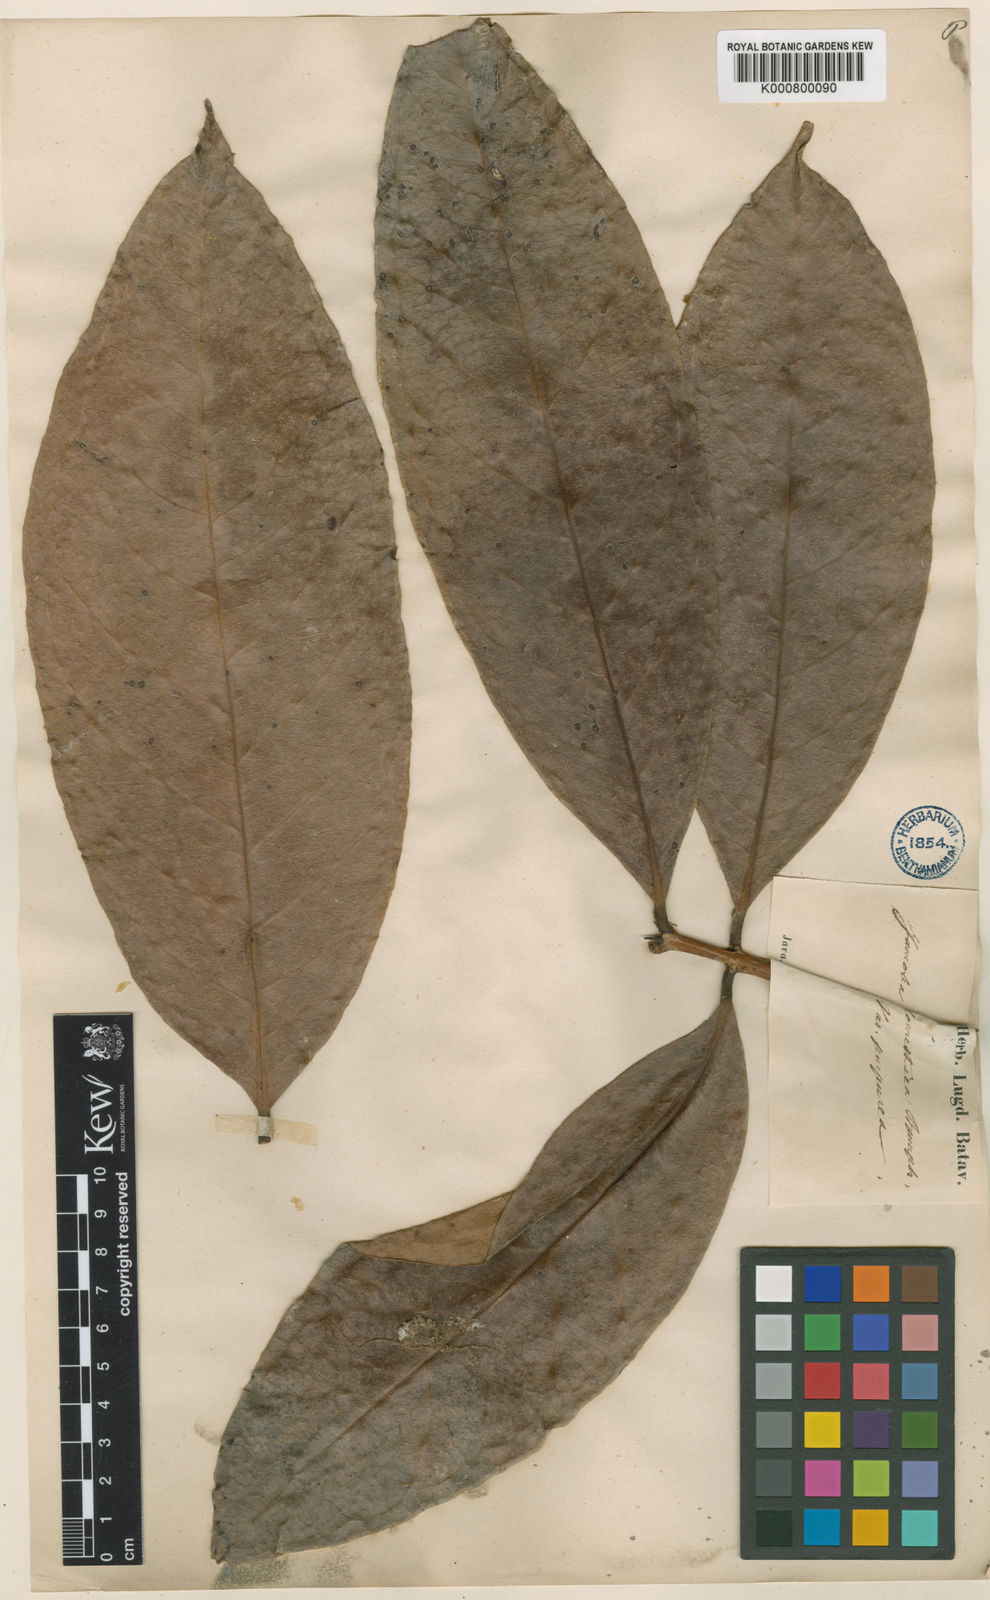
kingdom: Plantae
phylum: Tracheophyta
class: Magnoliopsida
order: Myrtales
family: Myrtaceae
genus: Syzygium
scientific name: Syzygium malaccense
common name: Malaysian apple
